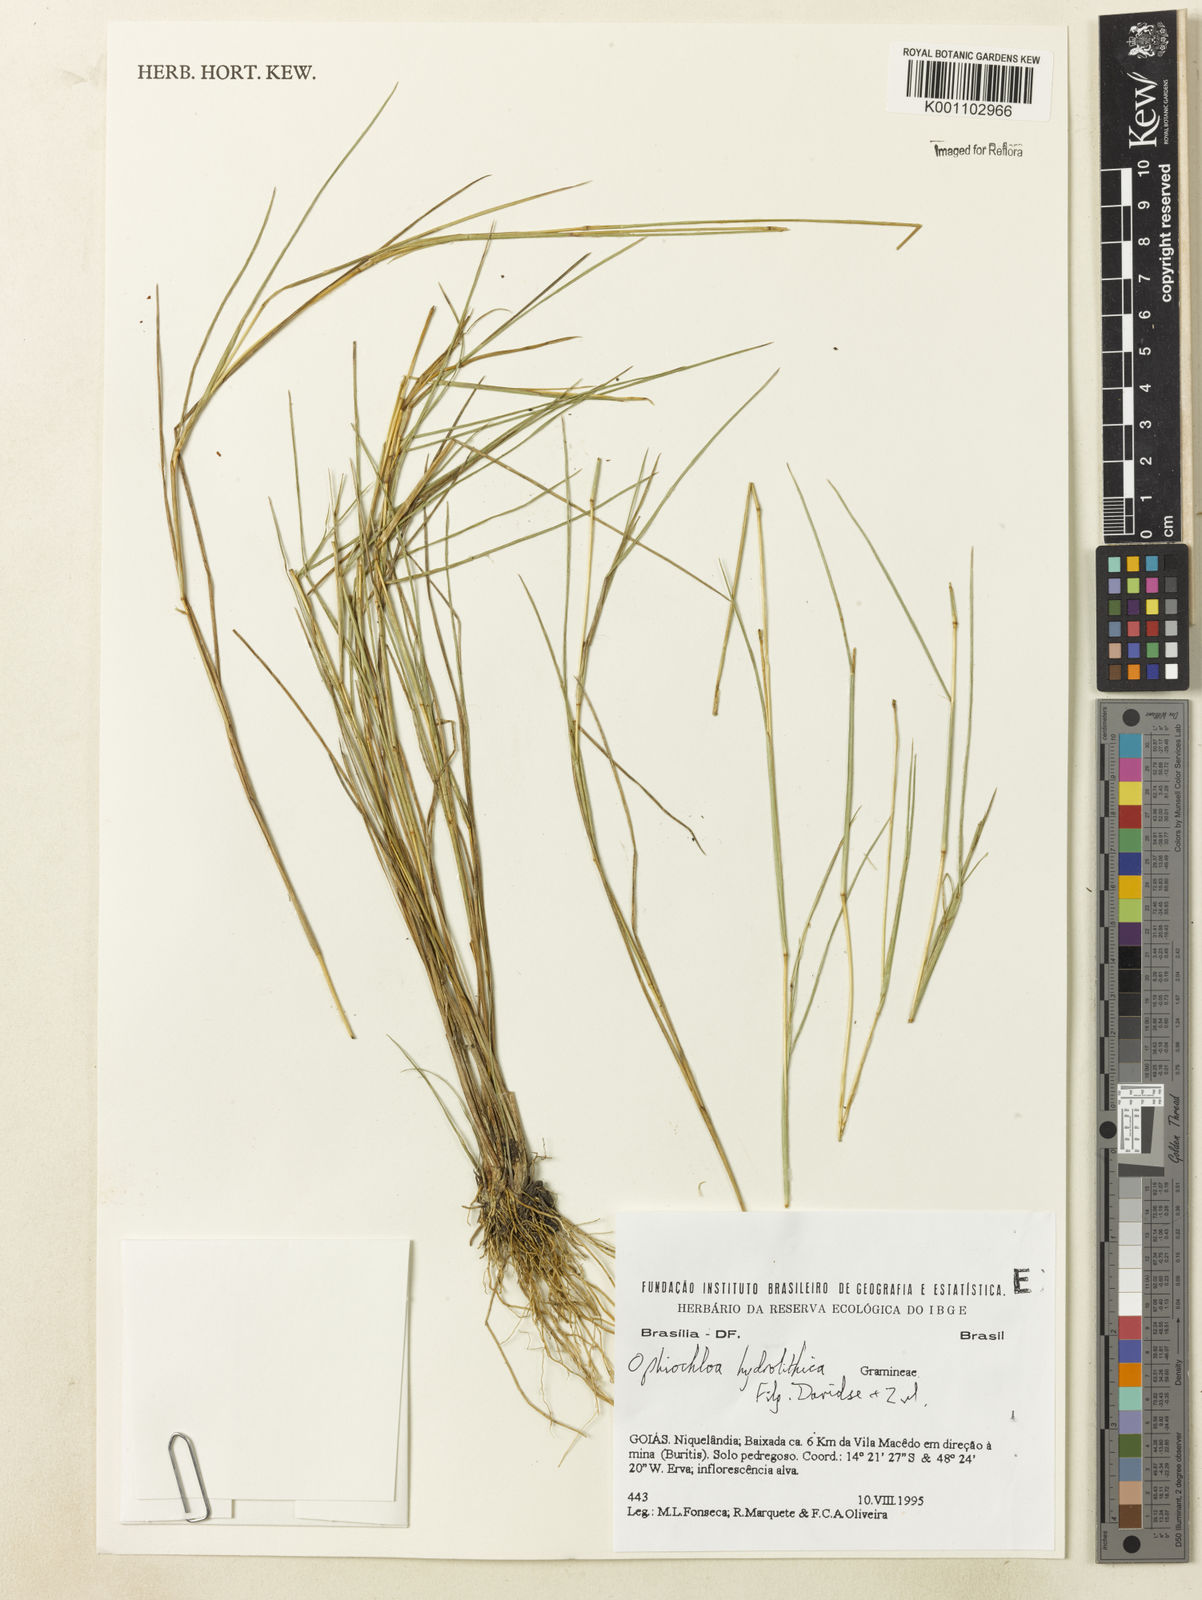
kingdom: Plantae
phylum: Tracheophyta
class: Liliopsida
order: Poales
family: Poaceae
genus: Axonopus
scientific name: Axonopus hydrolithicus
